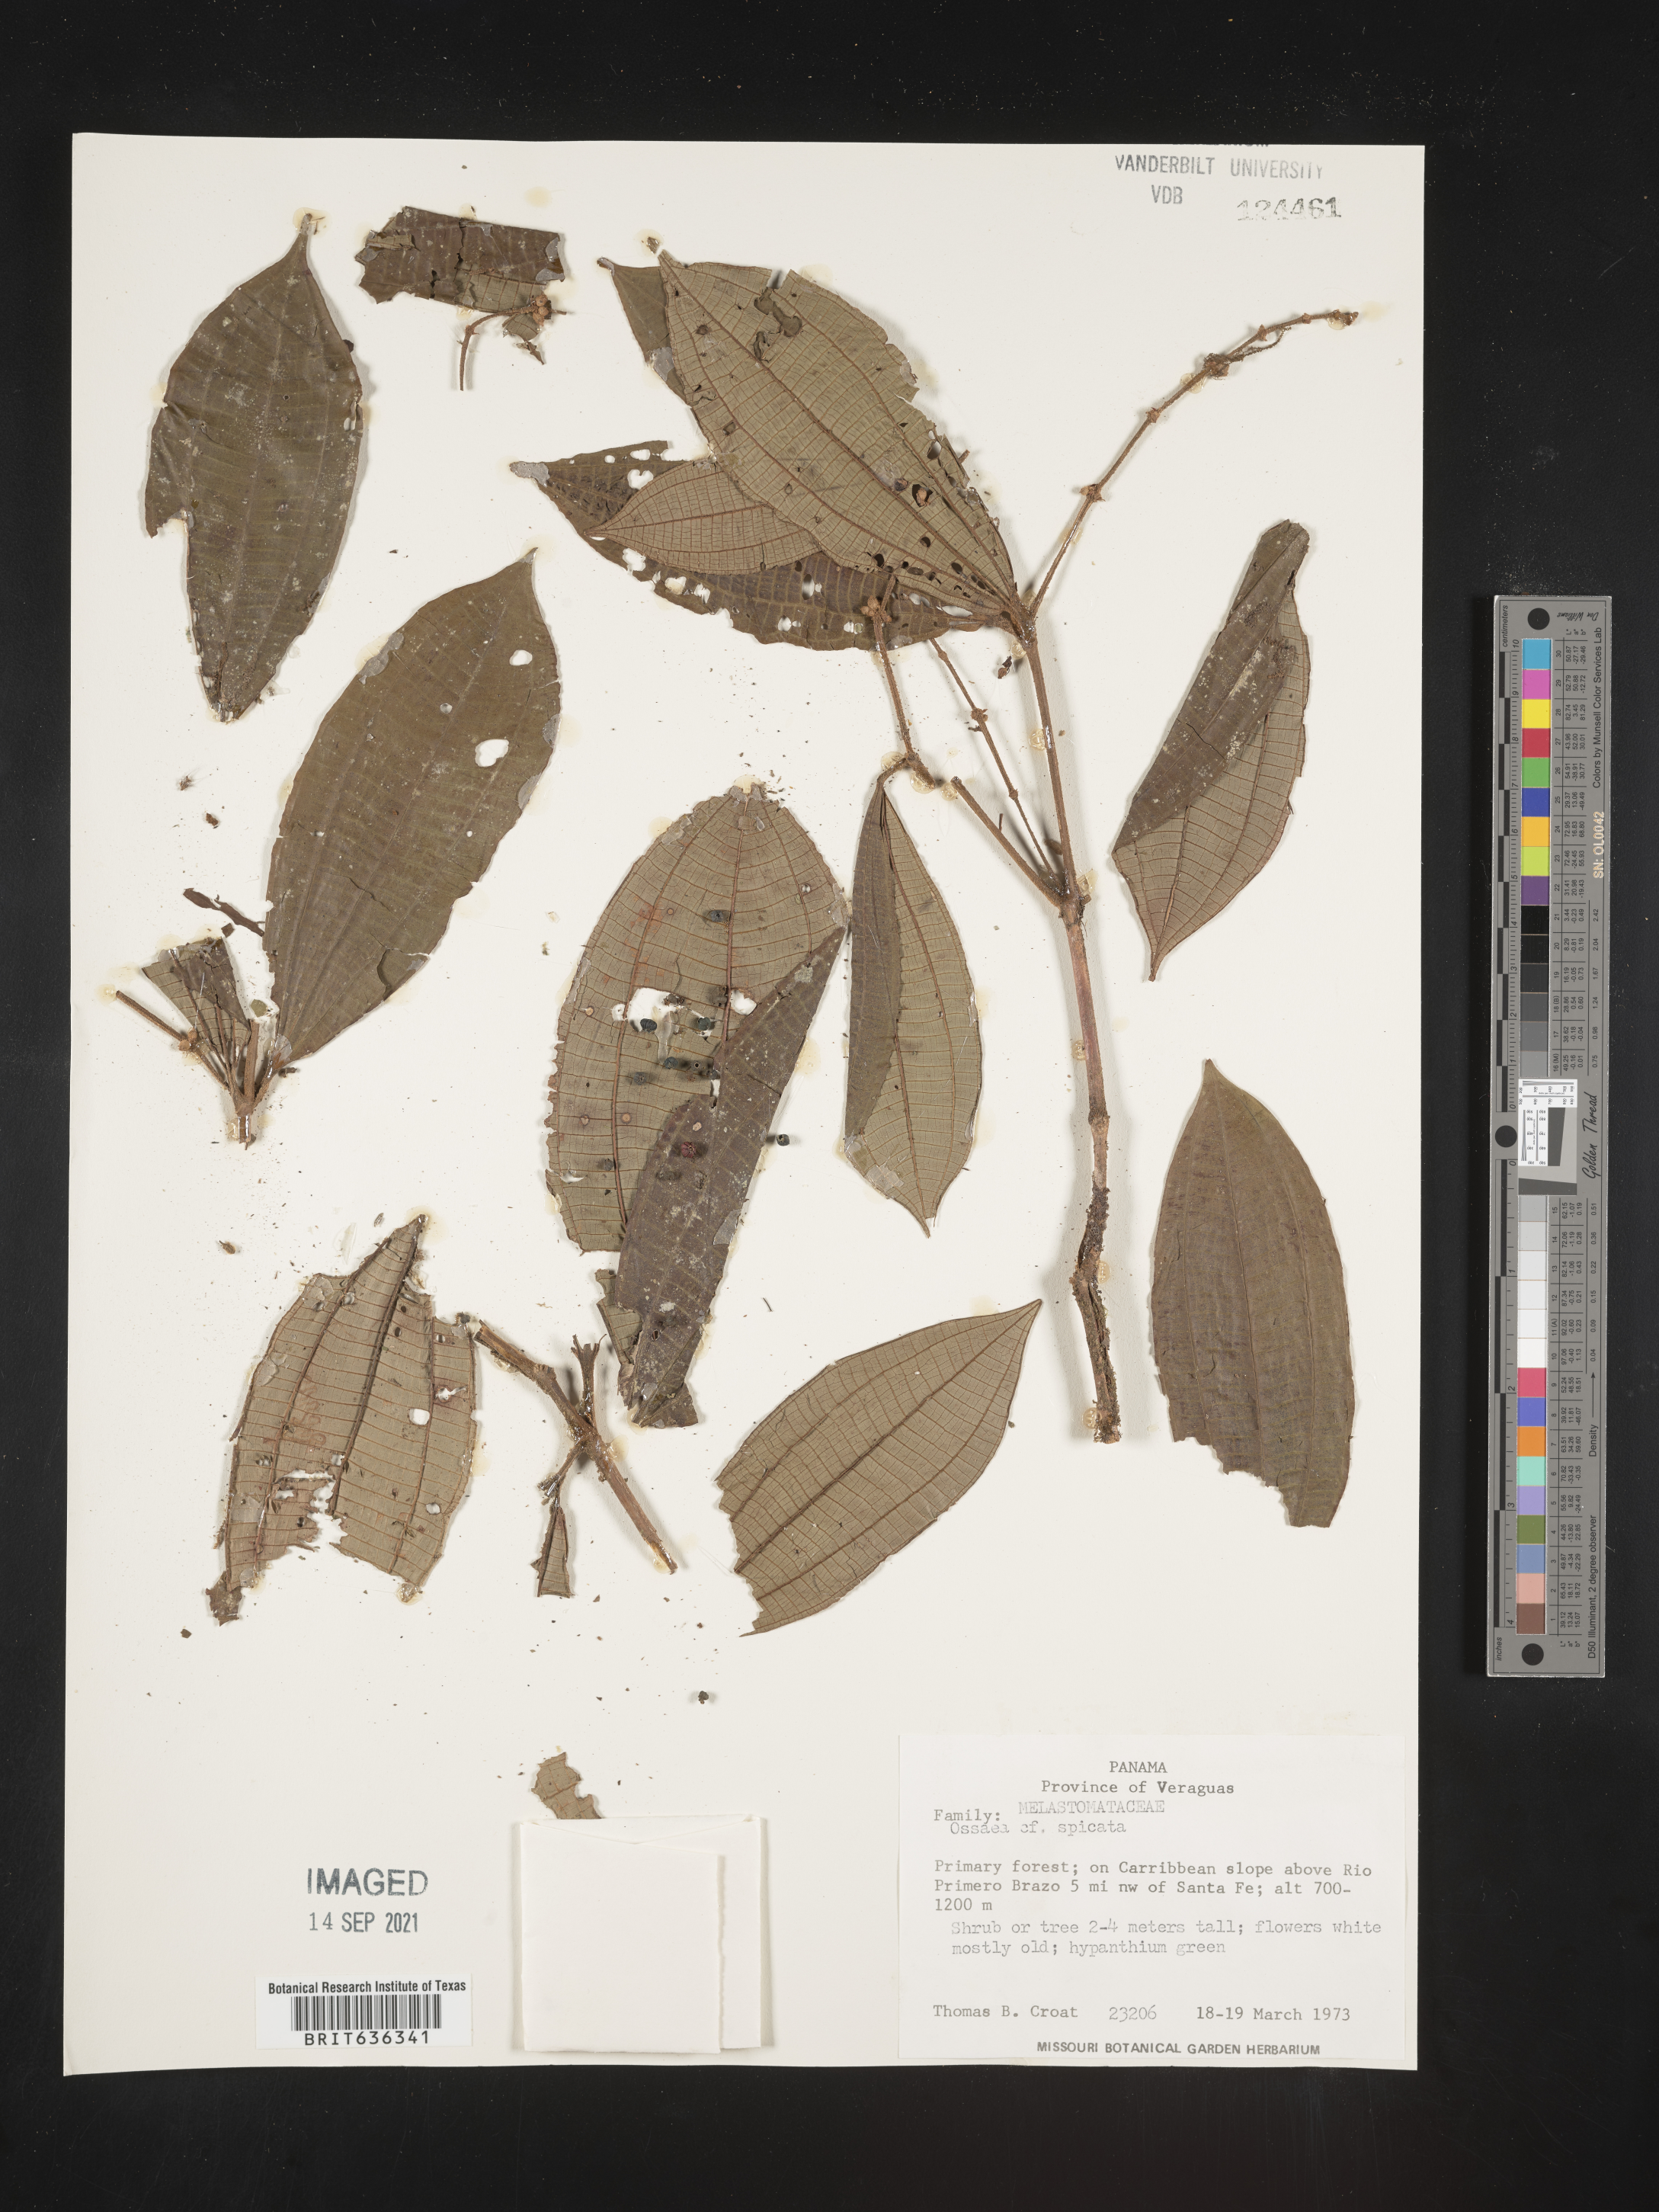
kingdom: Plantae
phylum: Tracheophyta
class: Magnoliopsida
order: Myrtales
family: Melastomataceae
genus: Ossaea
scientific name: Ossaea
